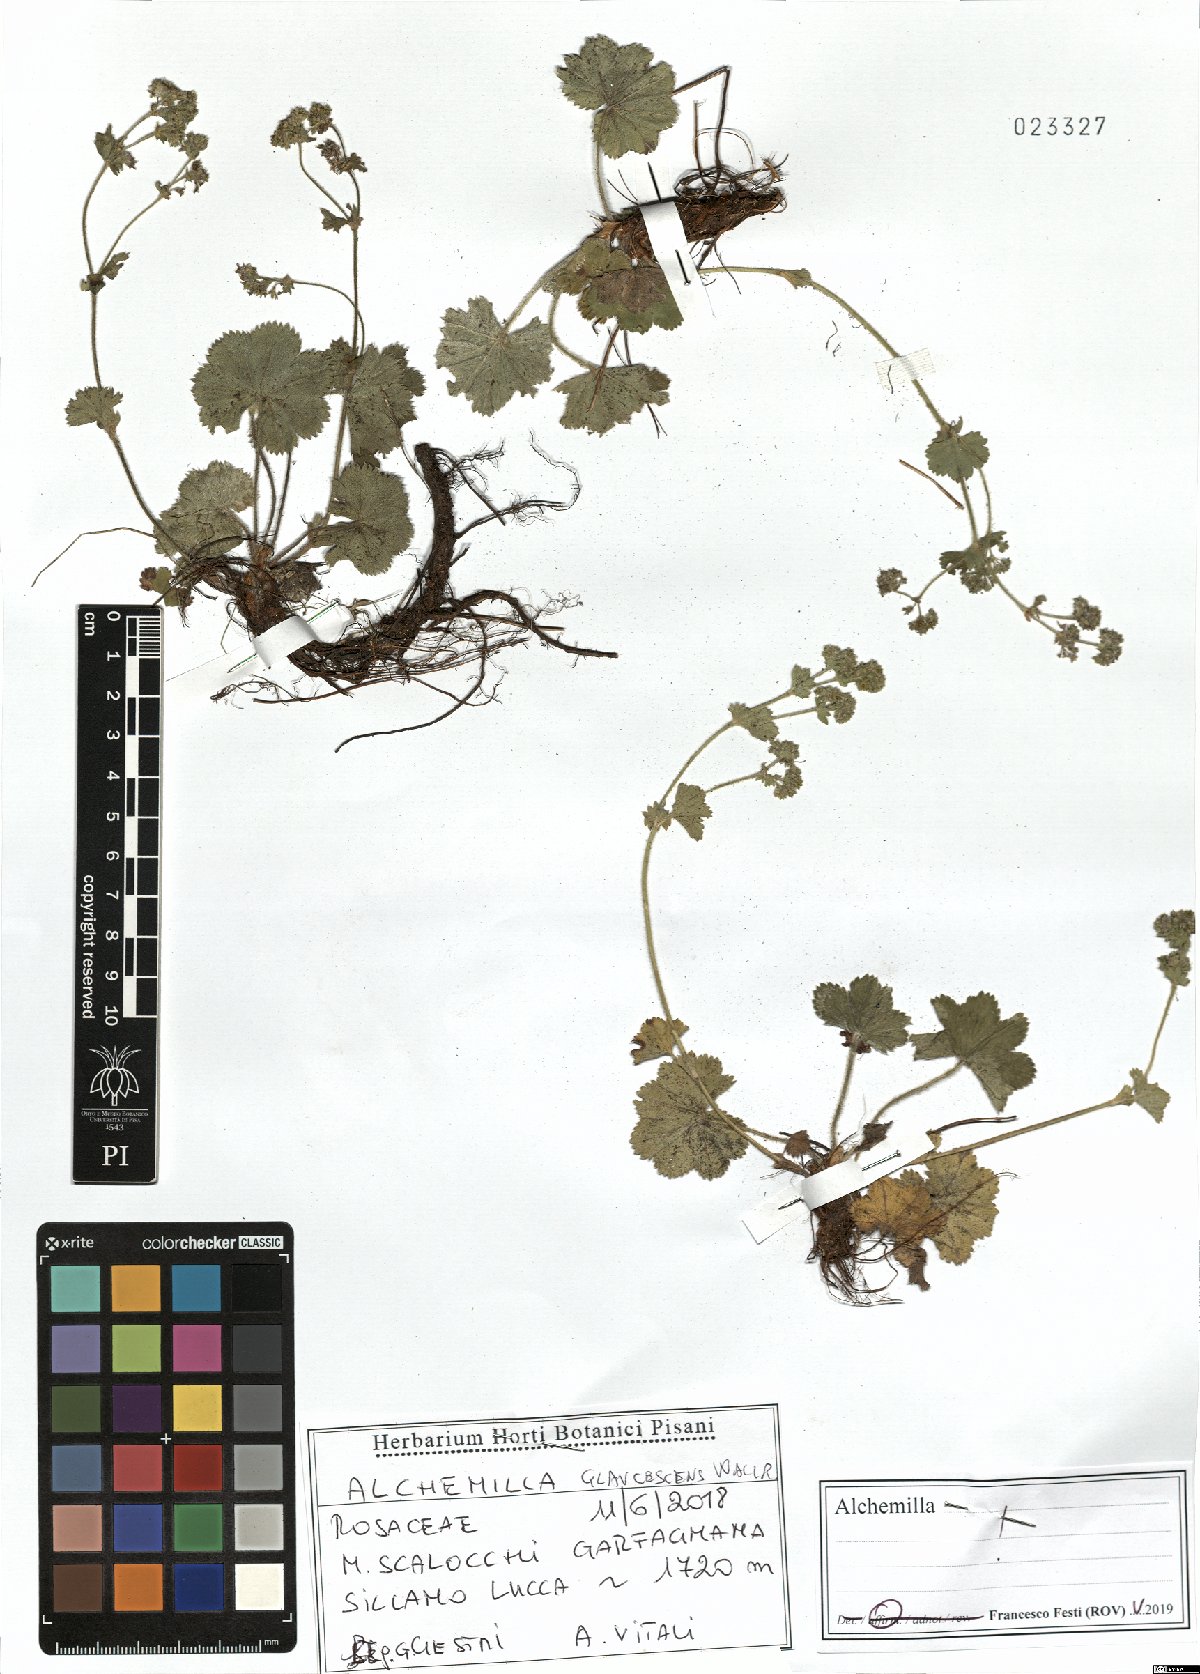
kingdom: Plantae
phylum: Tracheophyta
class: Magnoliopsida
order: Rosales
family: Rosaceae
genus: Alchemilla
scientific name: Alchemilla glaucescens
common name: Silky lady's mantle
